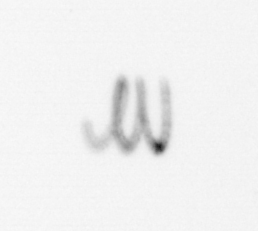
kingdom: Chromista
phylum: Ochrophyta
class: Bacillariophyceae
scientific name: Bacillariophyceae
